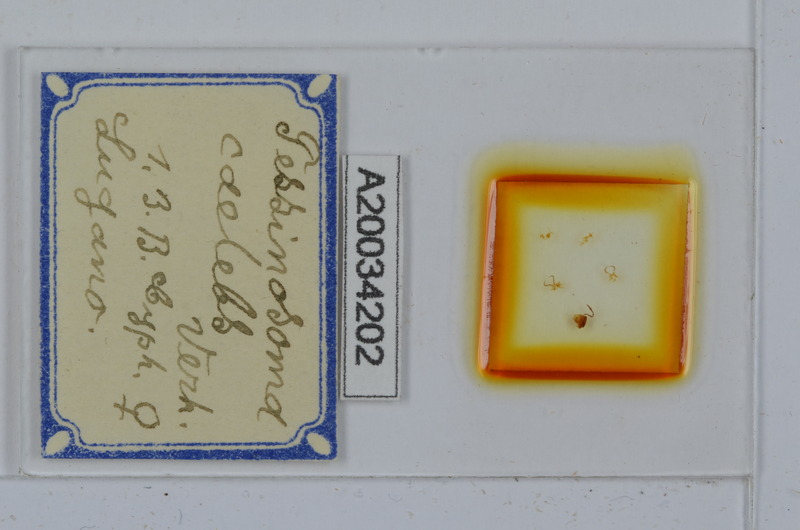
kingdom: Animalia
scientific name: Animalia
